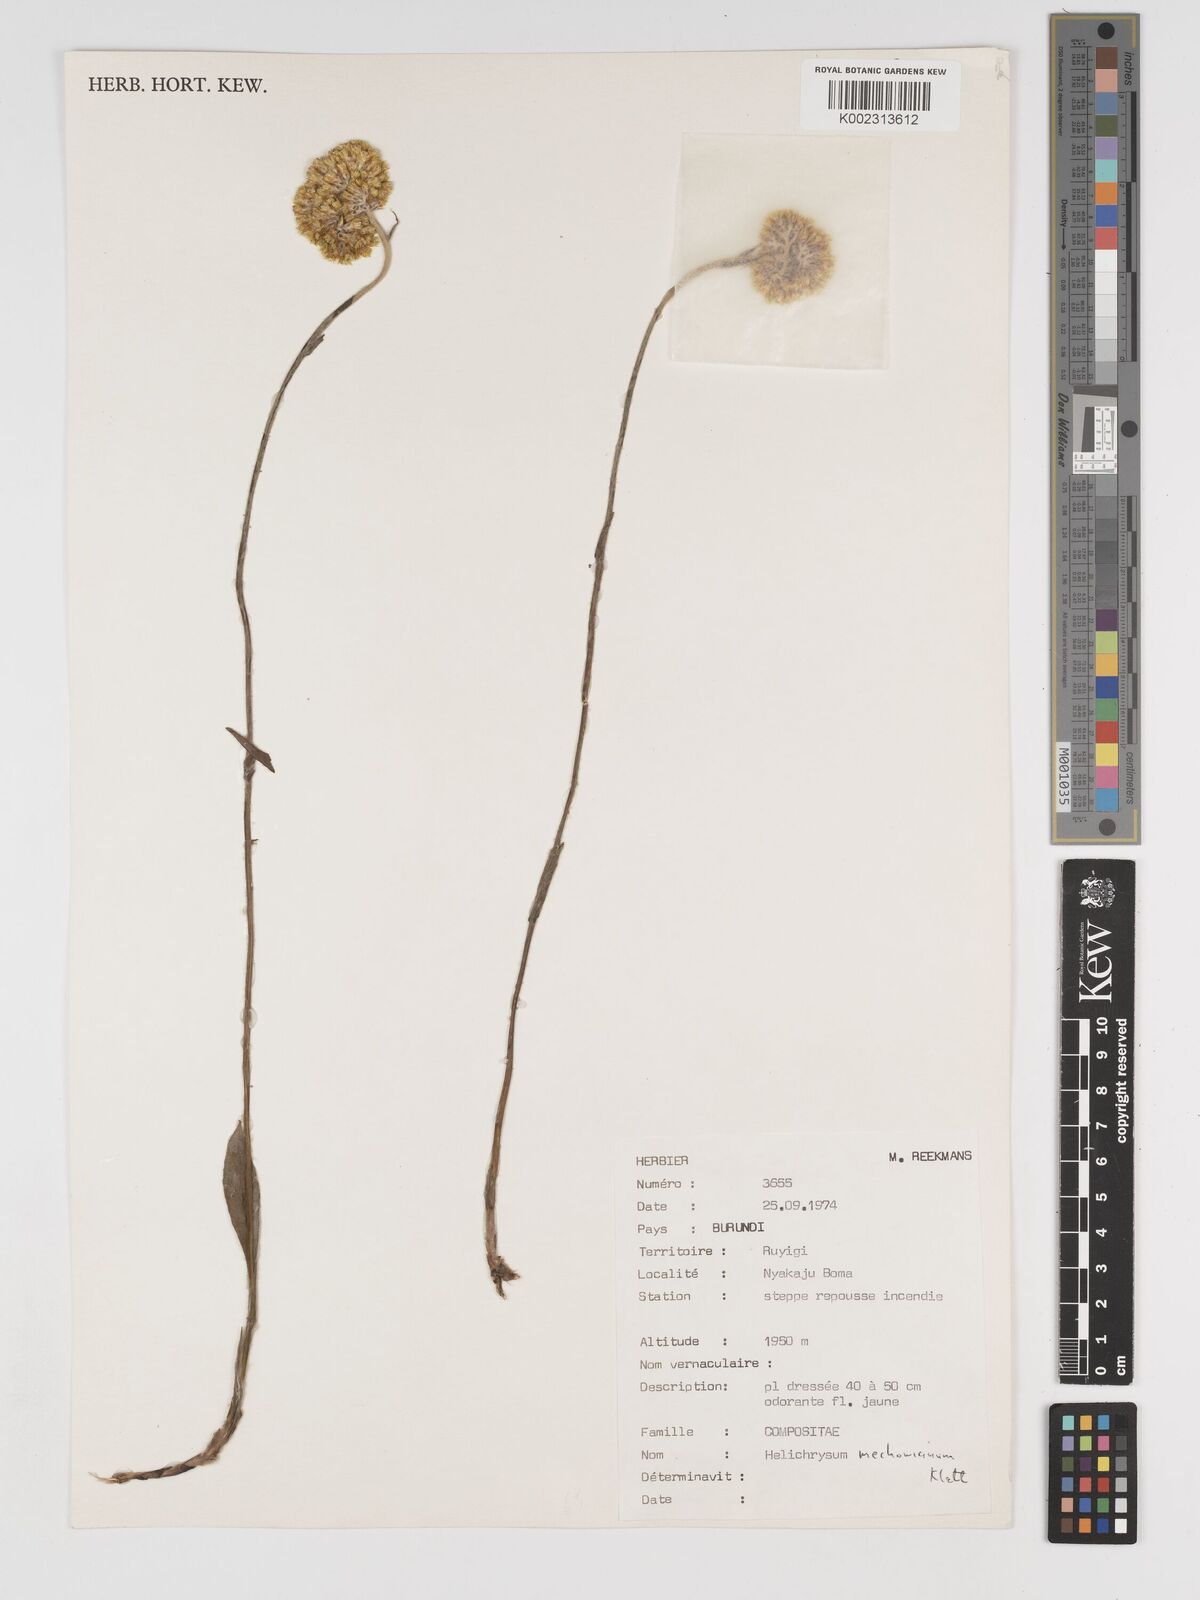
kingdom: Plantae
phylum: Tracheophyta
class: Magnoliopsida
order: Asterales
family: Asteraceae
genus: Helichrysum
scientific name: Helichrysum mechowianum
